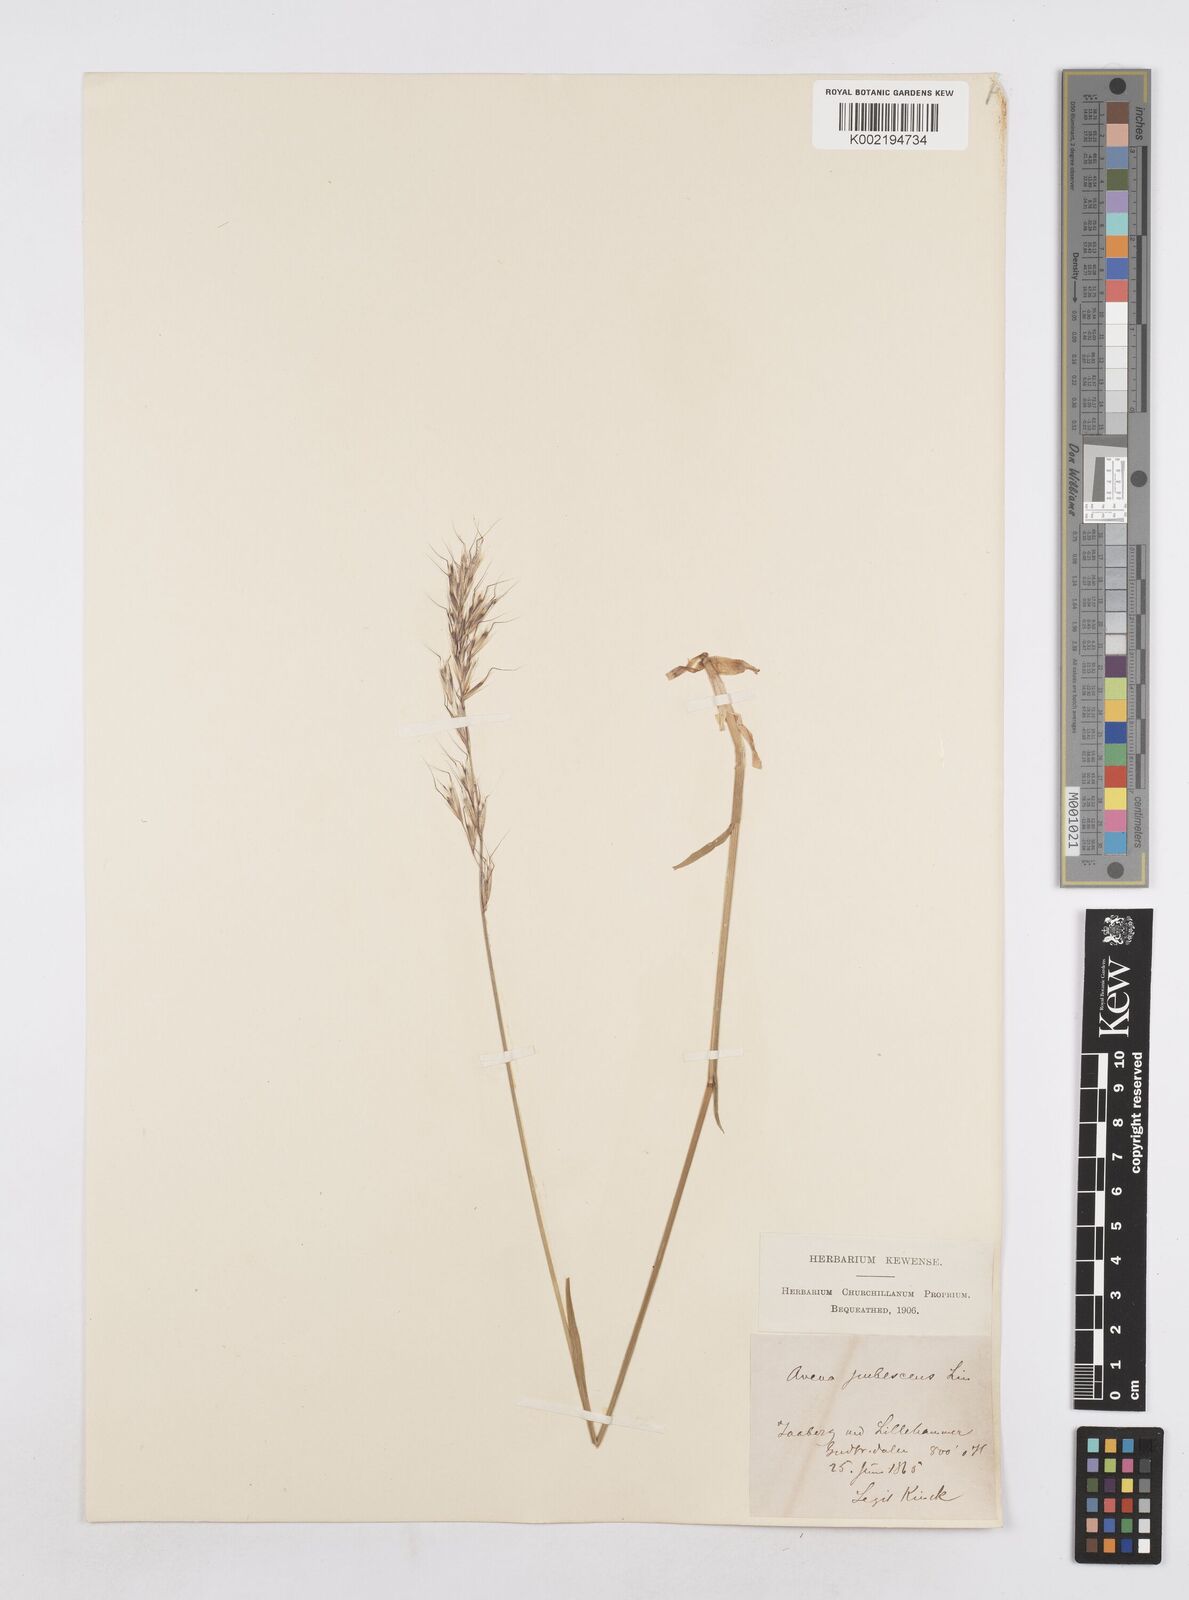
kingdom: Plantae
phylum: Tracheophyta
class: Liliopsida
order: Poales
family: Poaceae
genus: Avenula
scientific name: Avenula pubescens
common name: Downy alpine oatgrass
